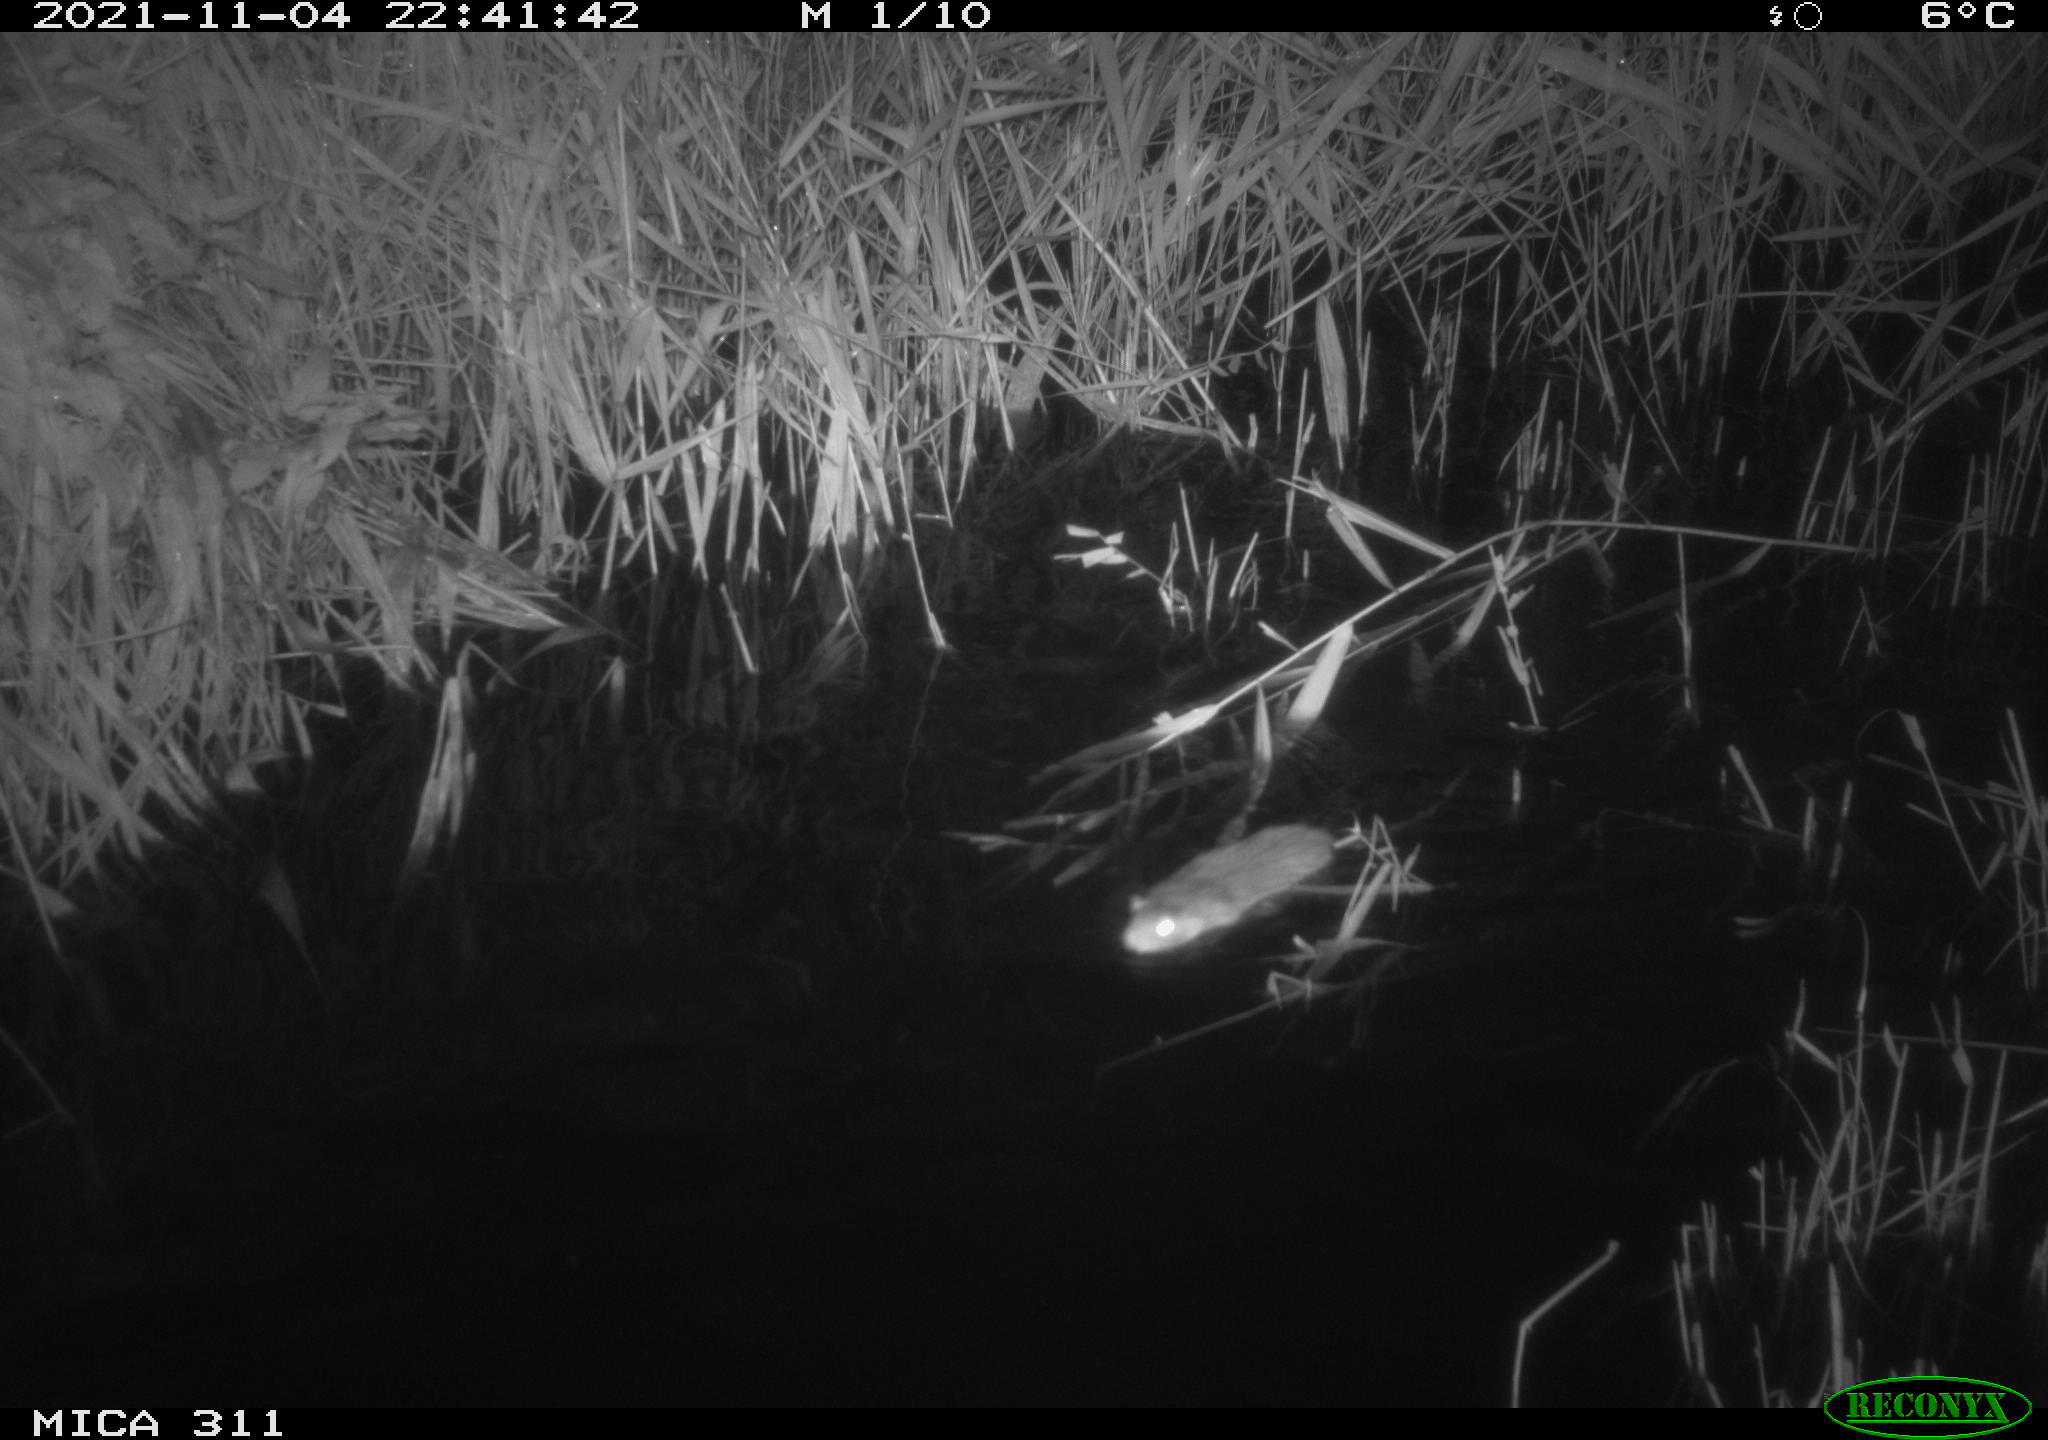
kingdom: Animalia
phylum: Chordata
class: Mammalia
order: Rodentia
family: Muridae
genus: Rattus
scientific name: Rattus norvegicus
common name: Brown rat
